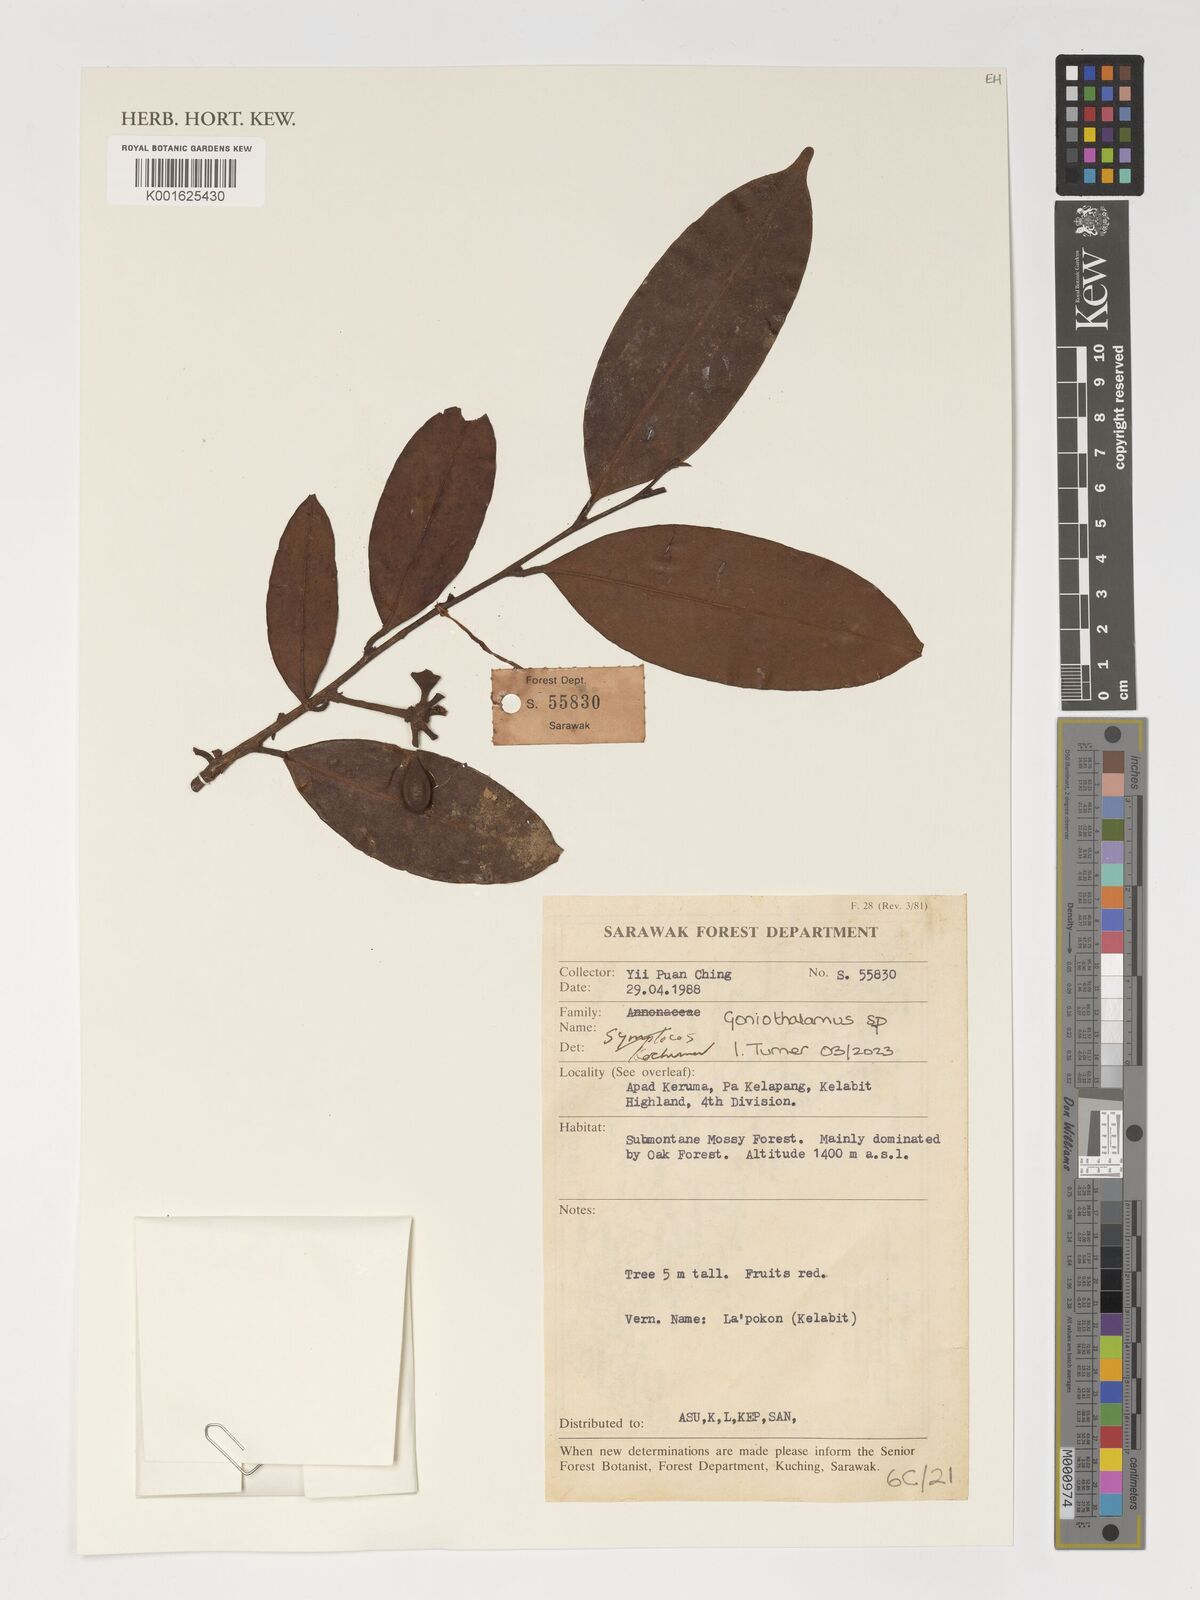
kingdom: Plantae
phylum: Tracheophyta
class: Magnoliopsida
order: Magnoliales
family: Annonaceae
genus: Goniothalamus
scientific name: Goniothalamus
